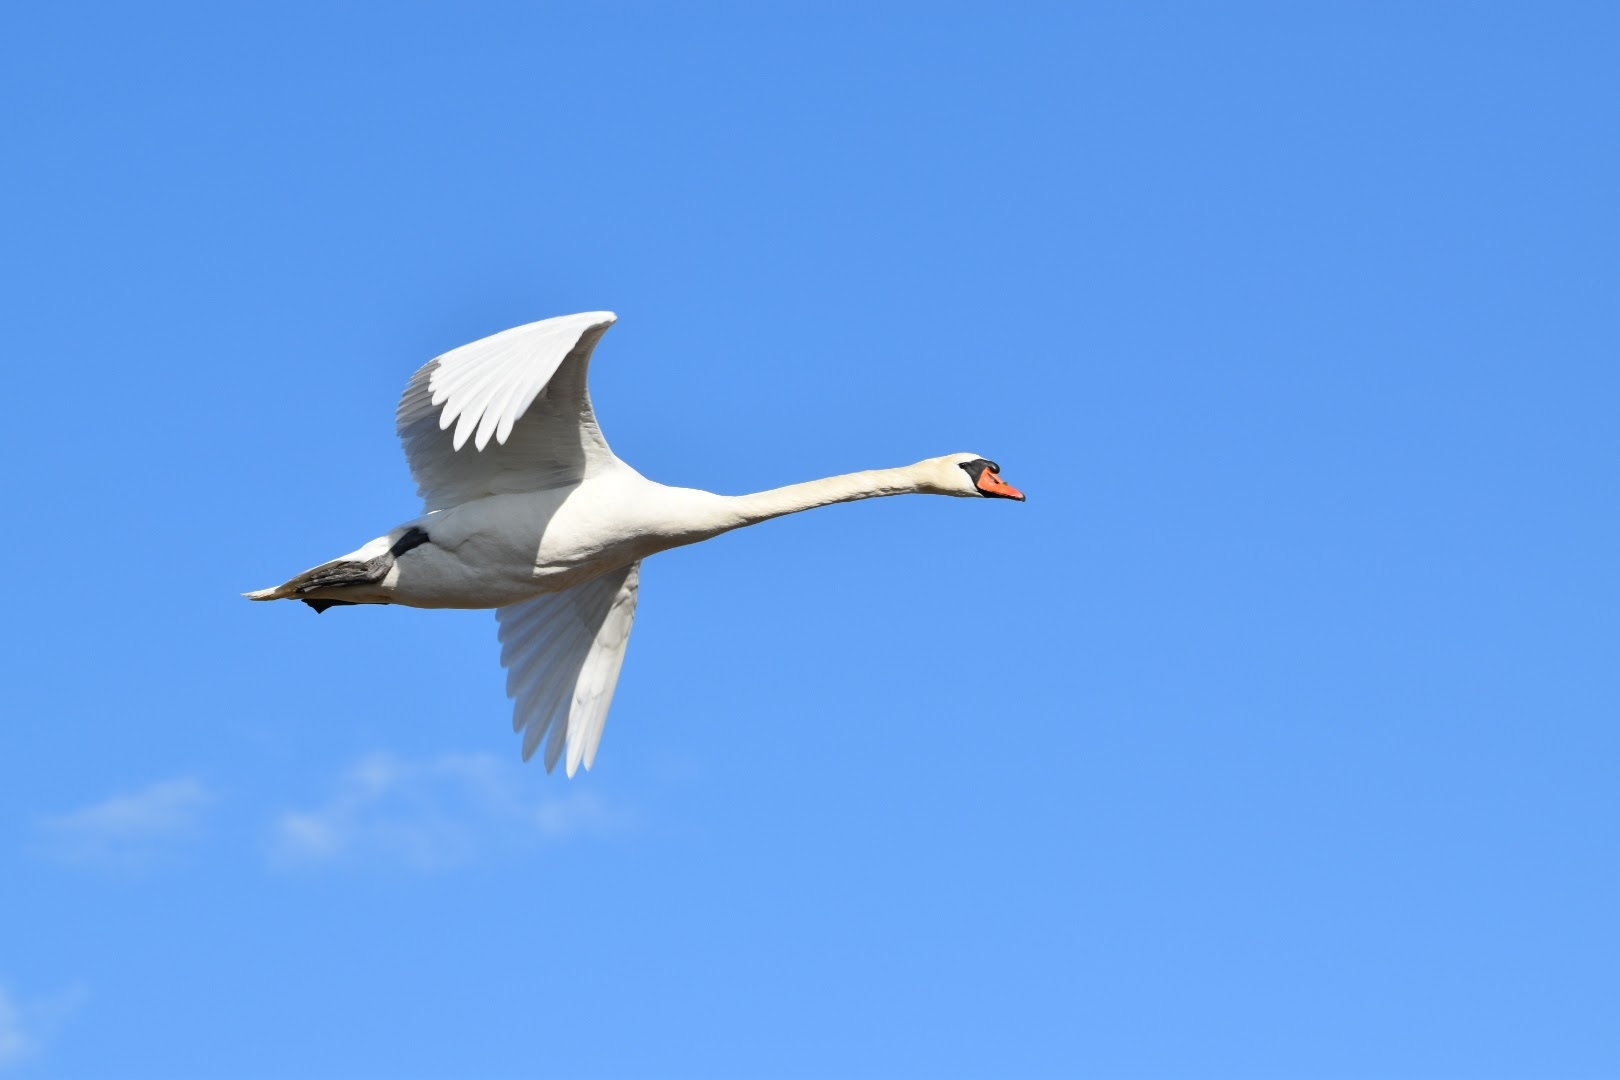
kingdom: Animalia
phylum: Chordata
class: Aves
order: Anseriformes
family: Anatidae
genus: Cygnus
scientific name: Cygnus olor
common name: Knopsvane
